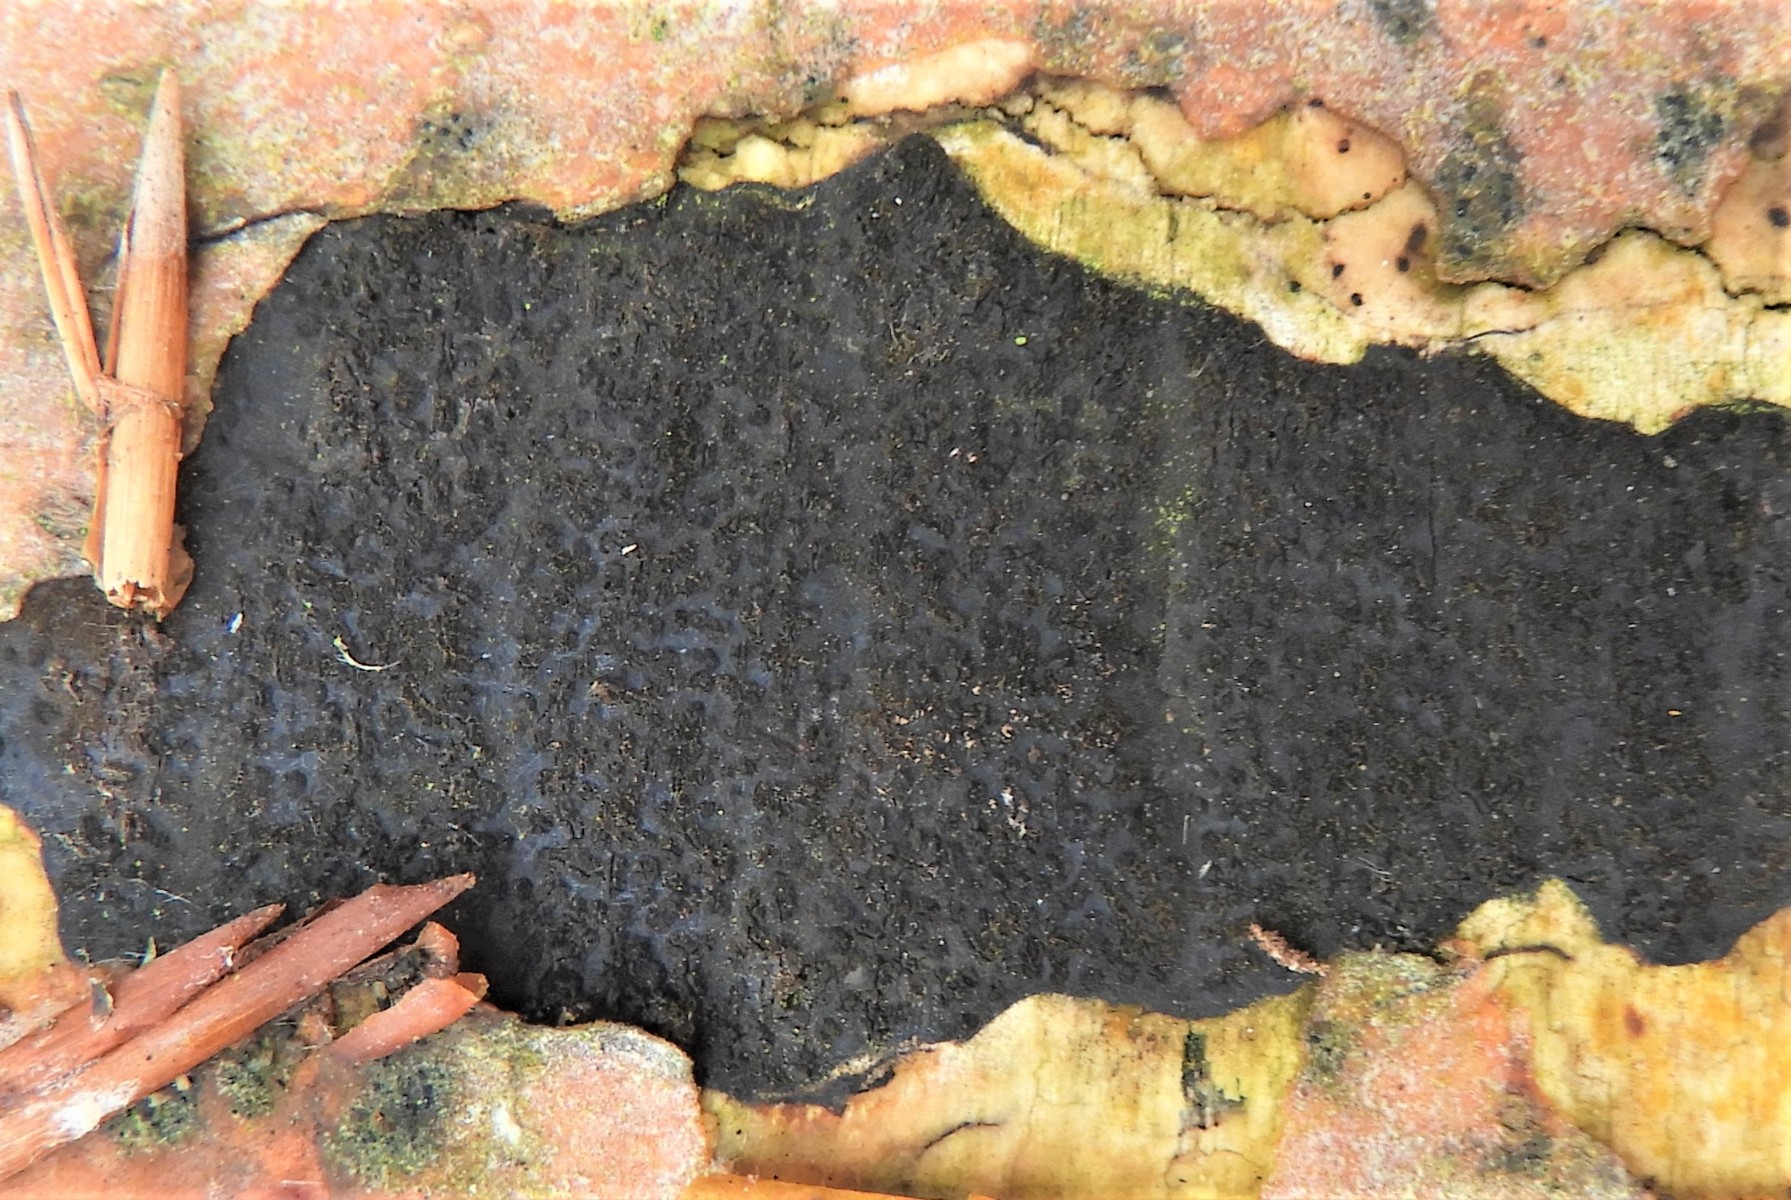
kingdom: Fungi
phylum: Ascomycota
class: Sordariomycetes
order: Xylariales
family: Diatrypaceae
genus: Eutypa
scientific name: Eutypa spinosa
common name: grov kulskorpe
